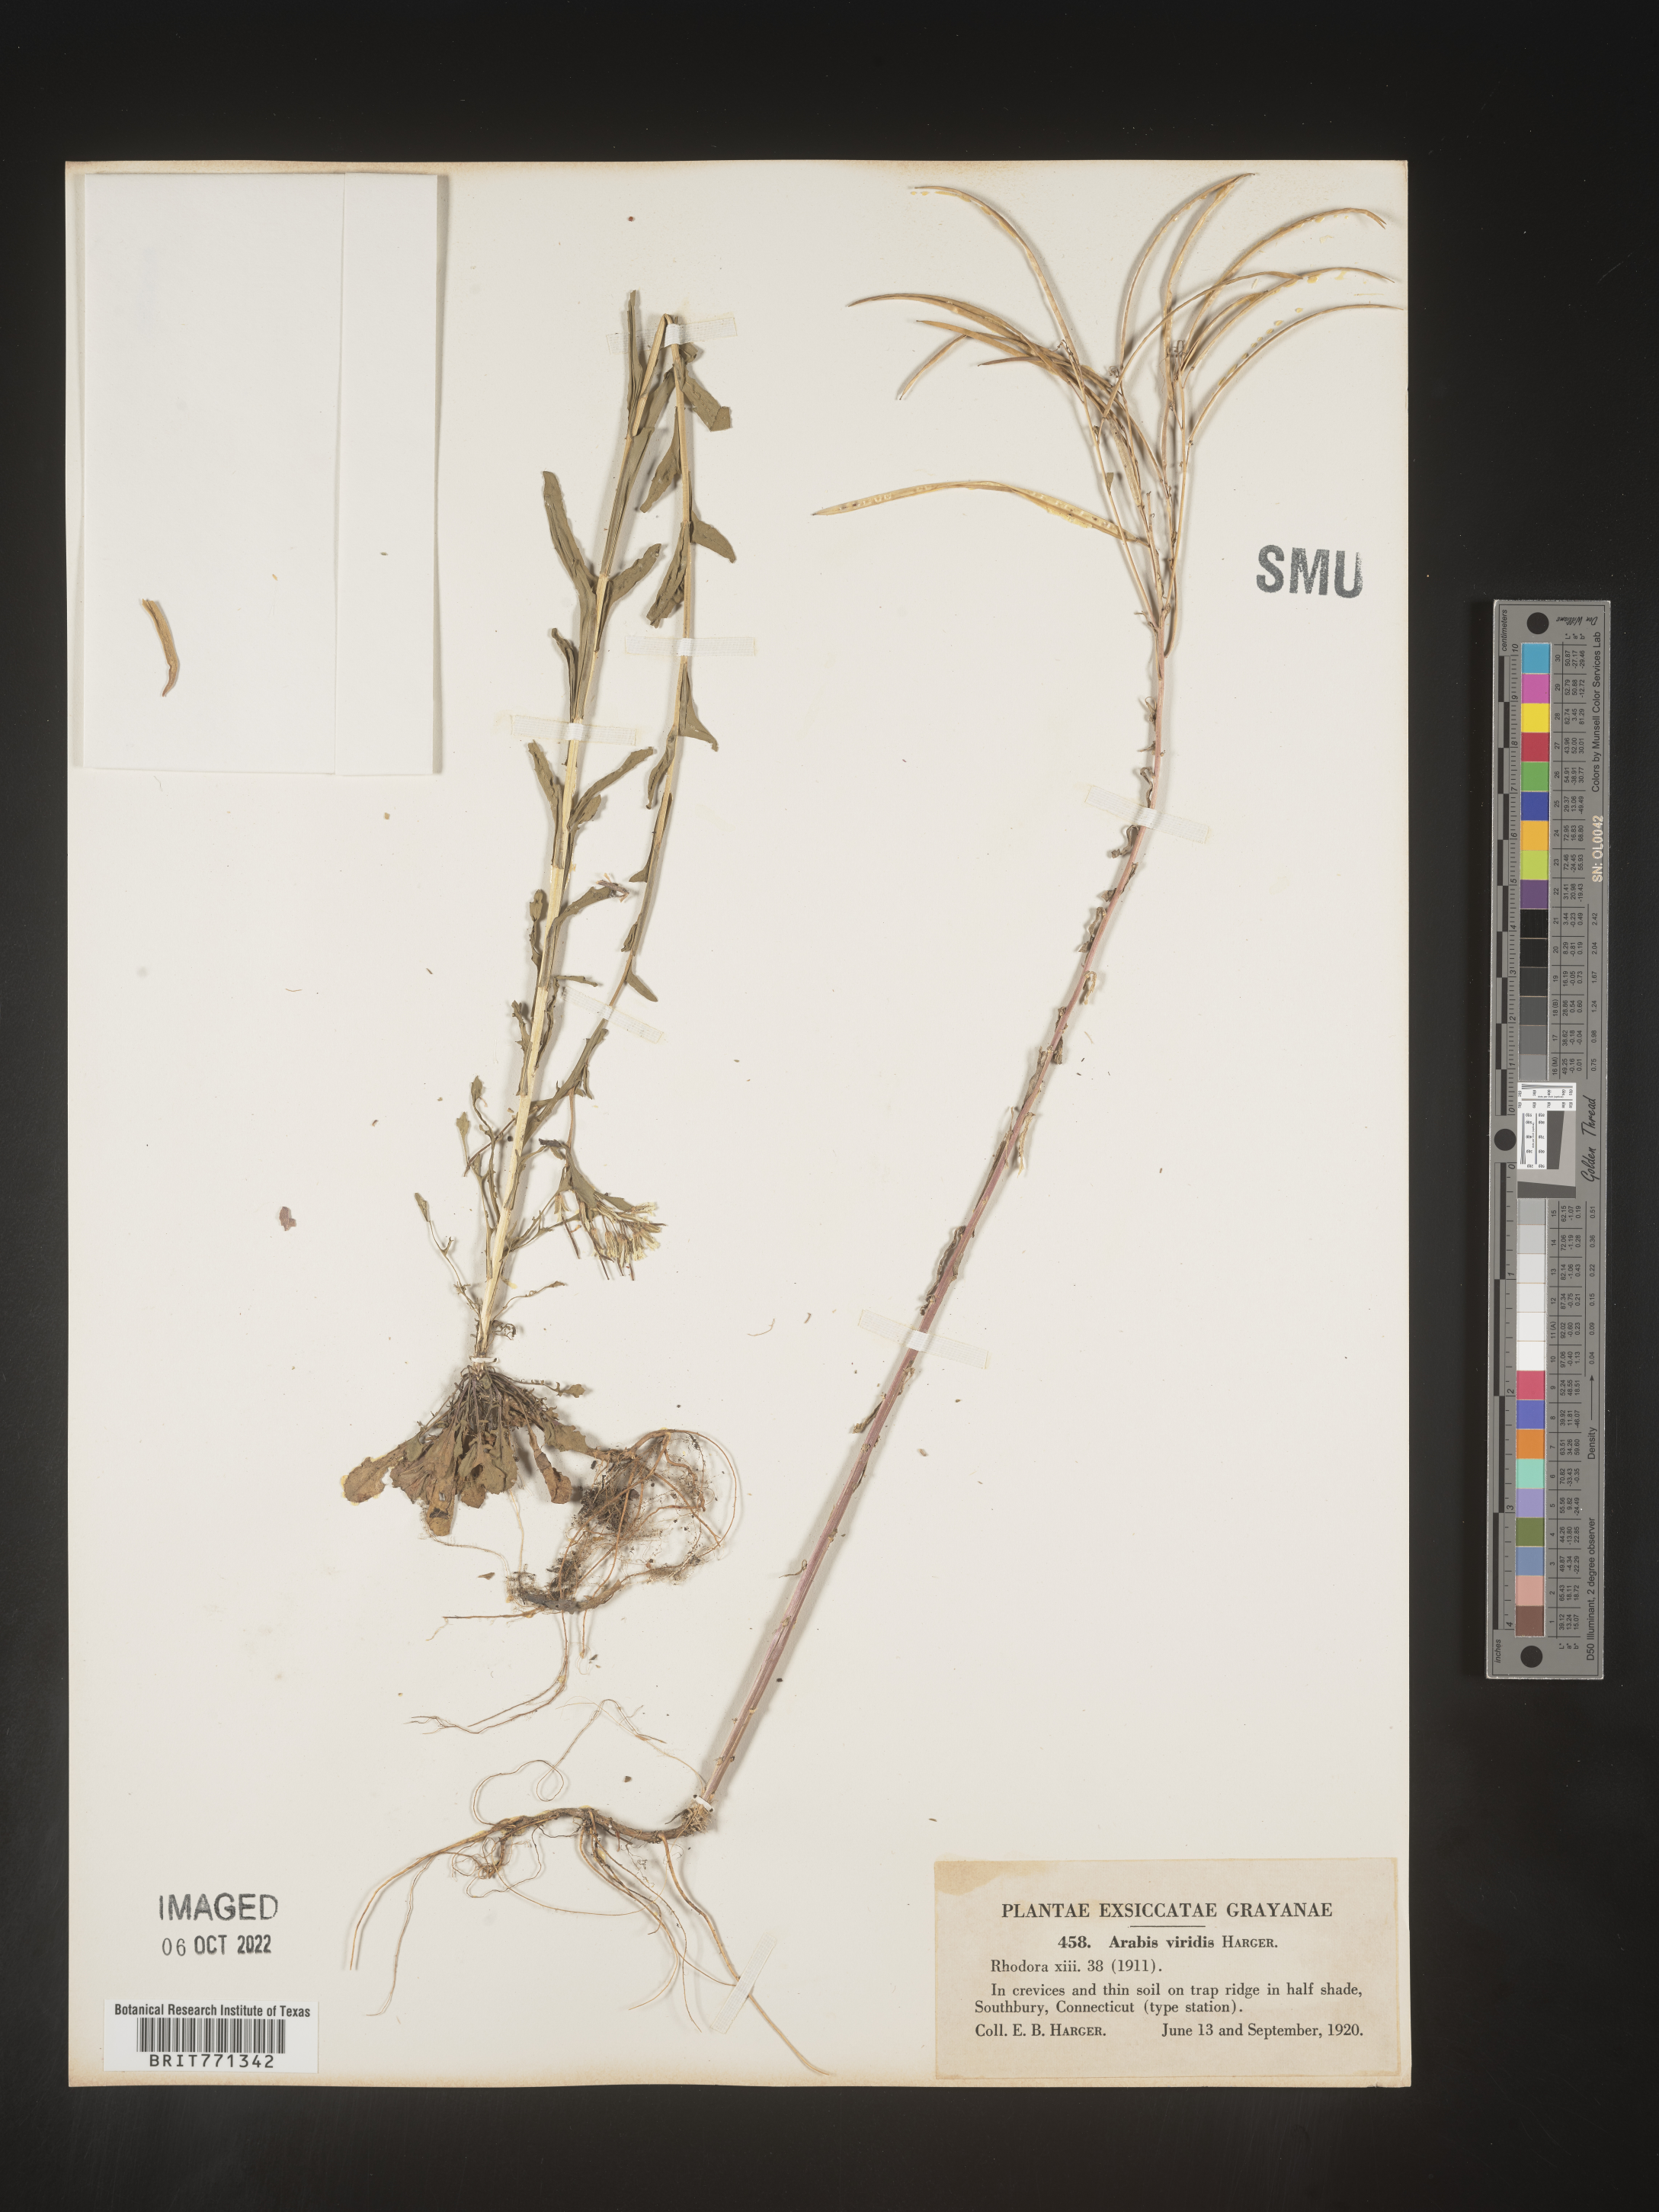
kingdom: Plantae
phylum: Tracheophyta
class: Magnoliopsida
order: Brassicales
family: Brassicaceae
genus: Arabis
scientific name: Arabis
